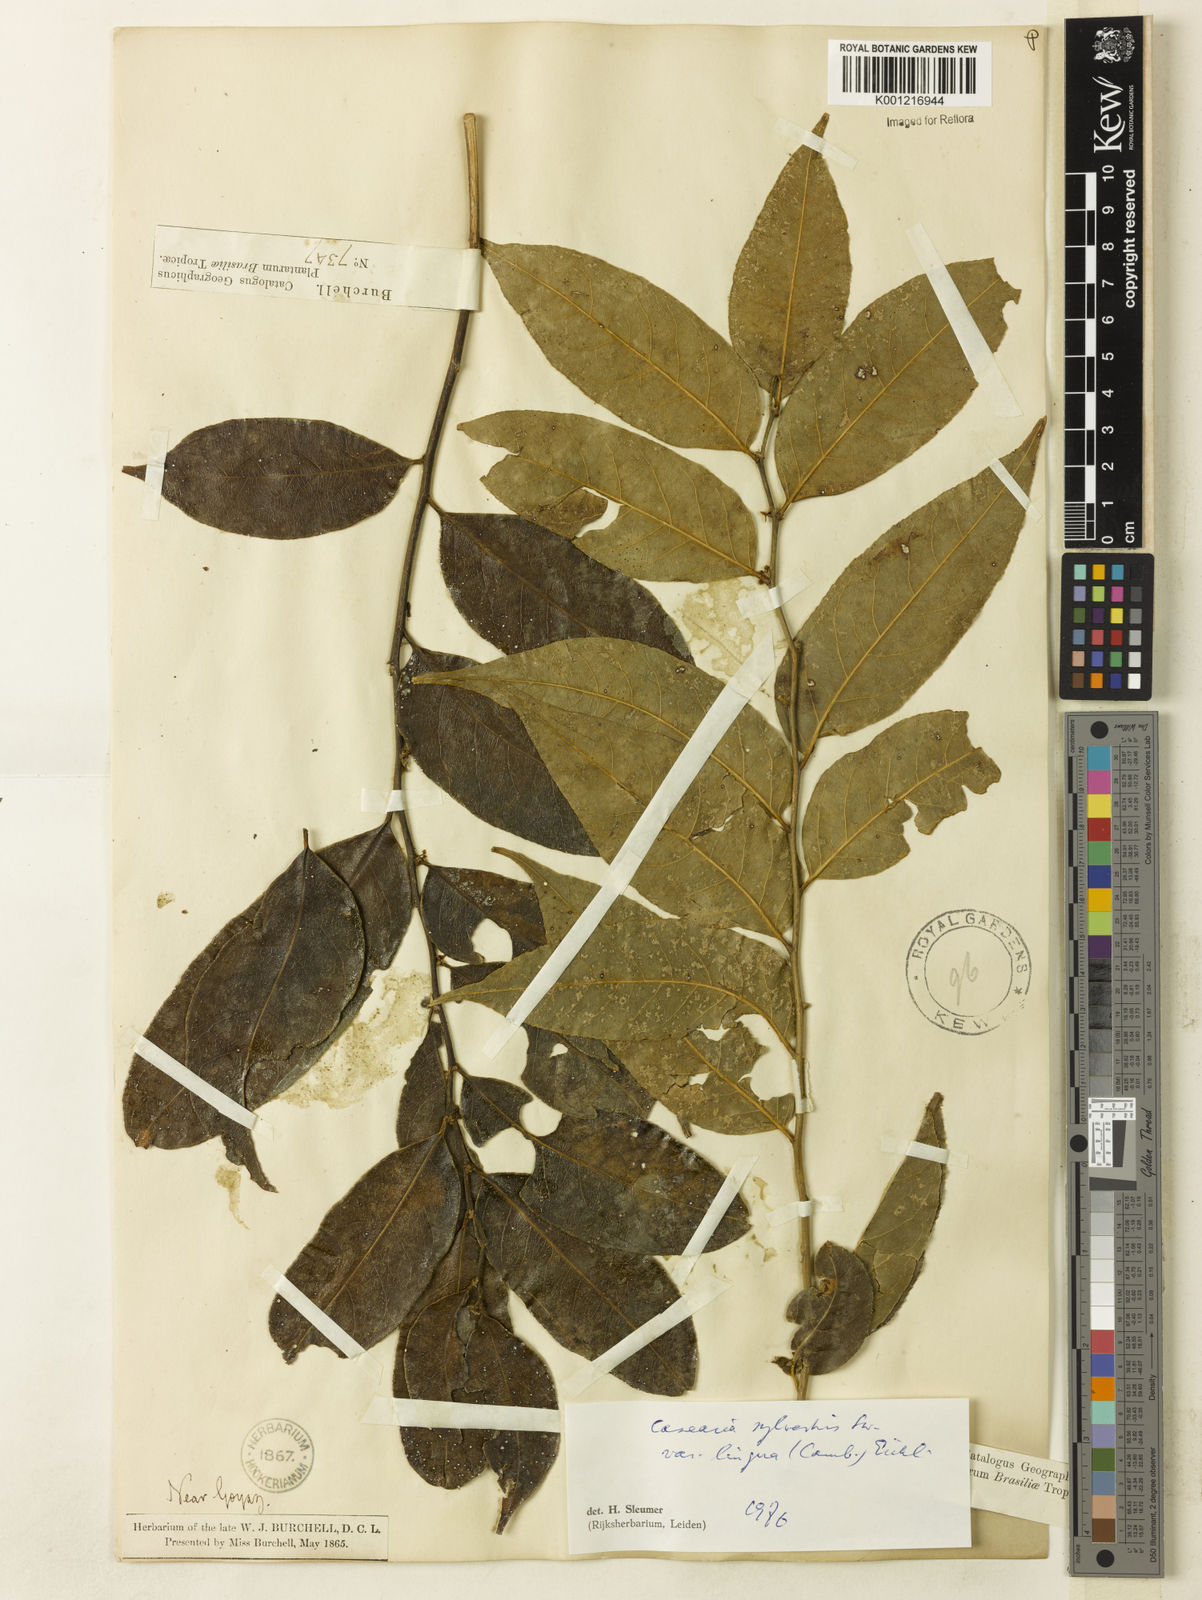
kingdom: Plantae
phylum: Tracheophyta
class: Magnoliopsida
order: Malpighiales
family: Salicaceae
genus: Casearia
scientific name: Casearia sylvestris
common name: Wild sage
